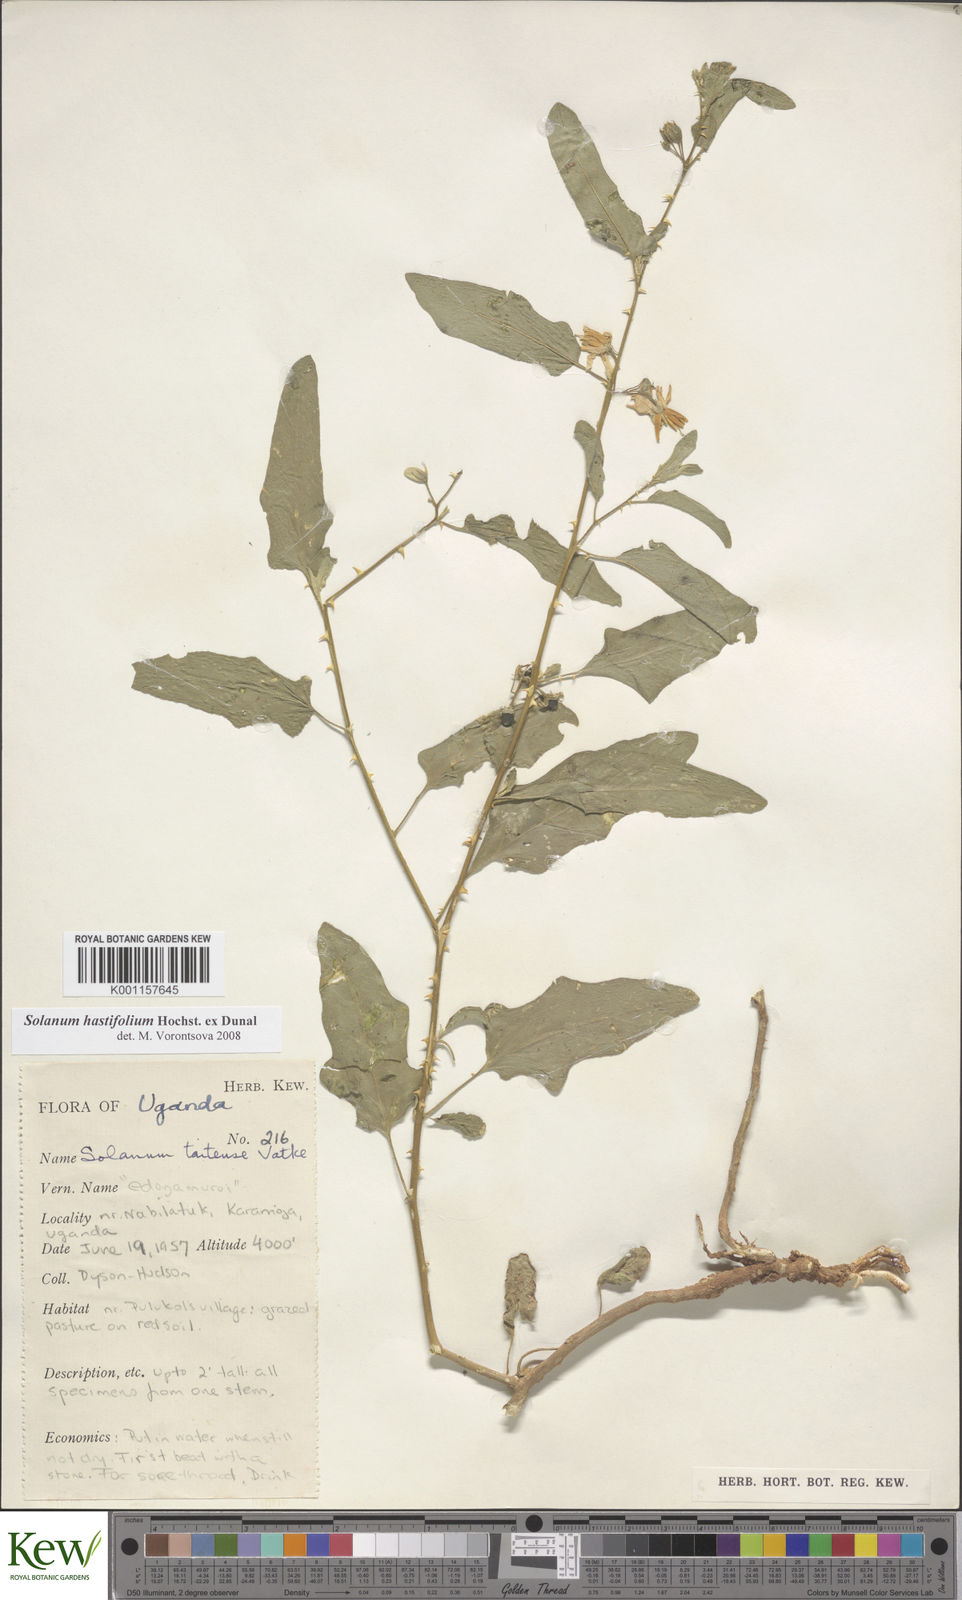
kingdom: Plantae
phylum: Tracheophyta
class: Magnoliopsida
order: Solanales
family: Solanaceae
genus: Solanum
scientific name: Solanum hastifolium
